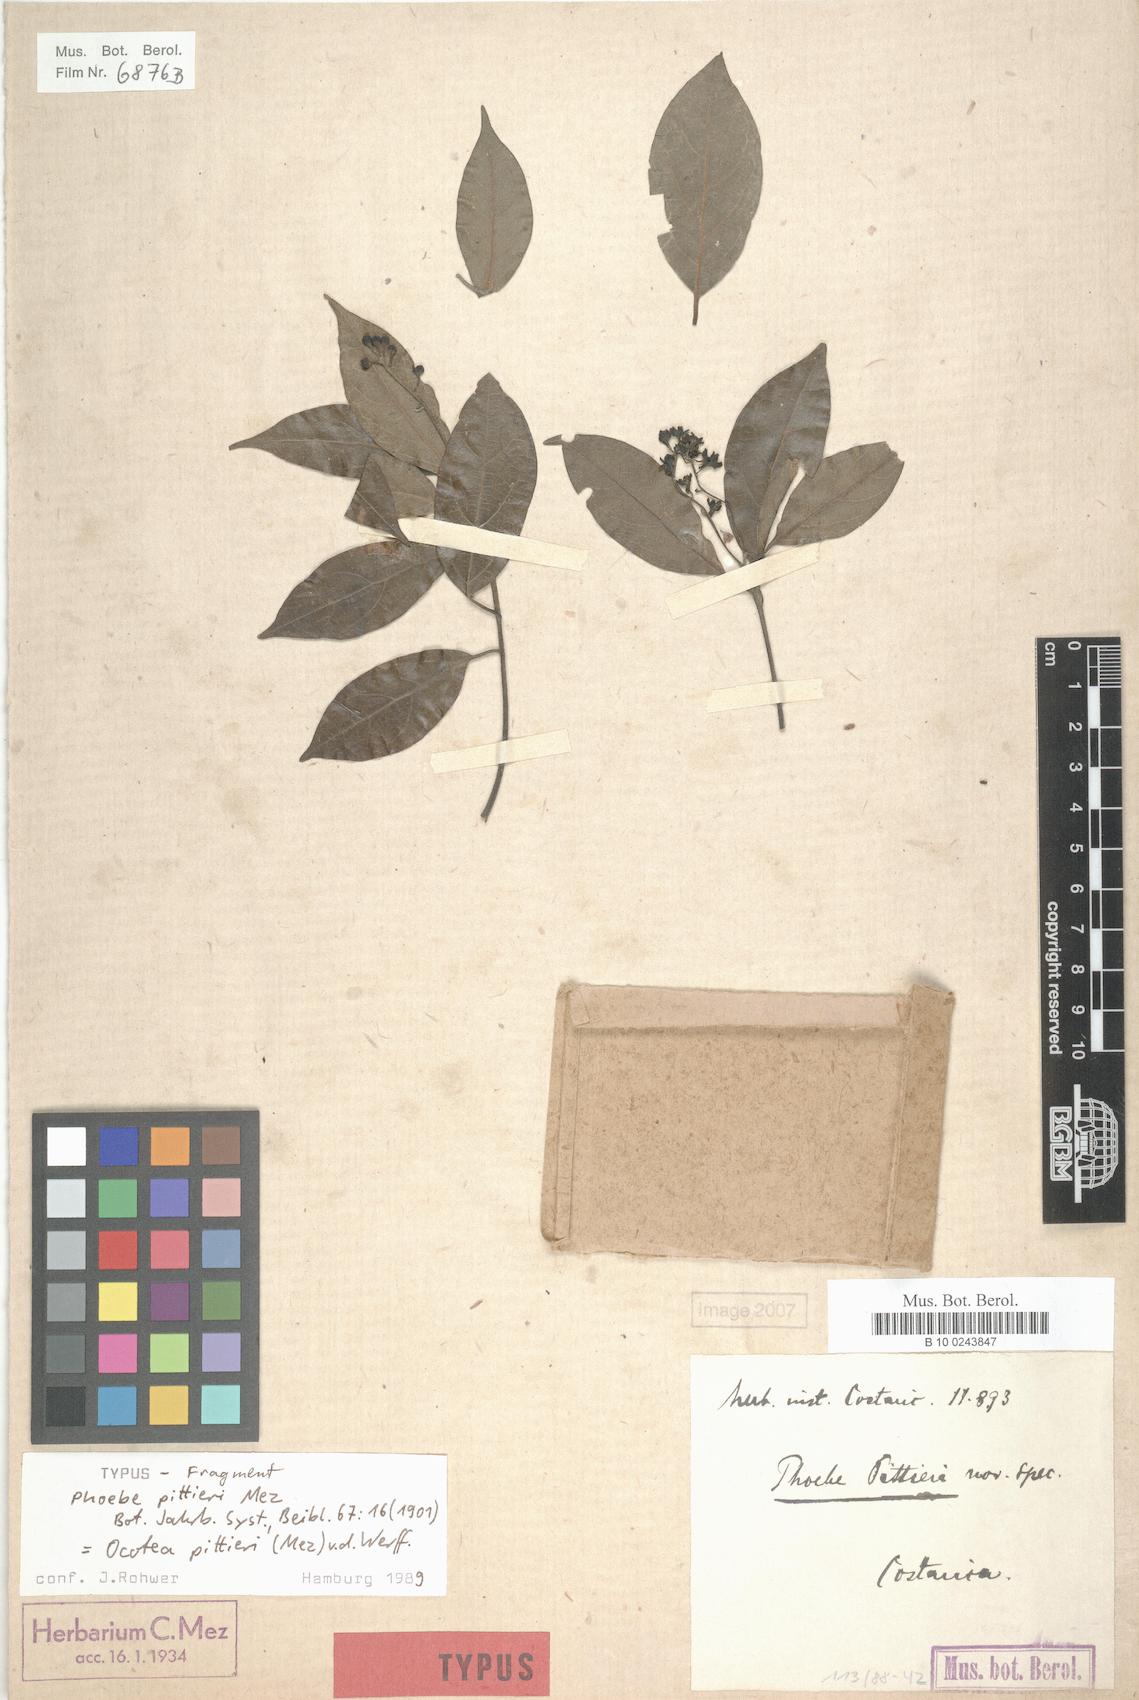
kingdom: Plantae
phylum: Tracheophyta
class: Magnoliopsida
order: Laurales
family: Lauraceae
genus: Ocotea
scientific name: Ocotea pittieri
